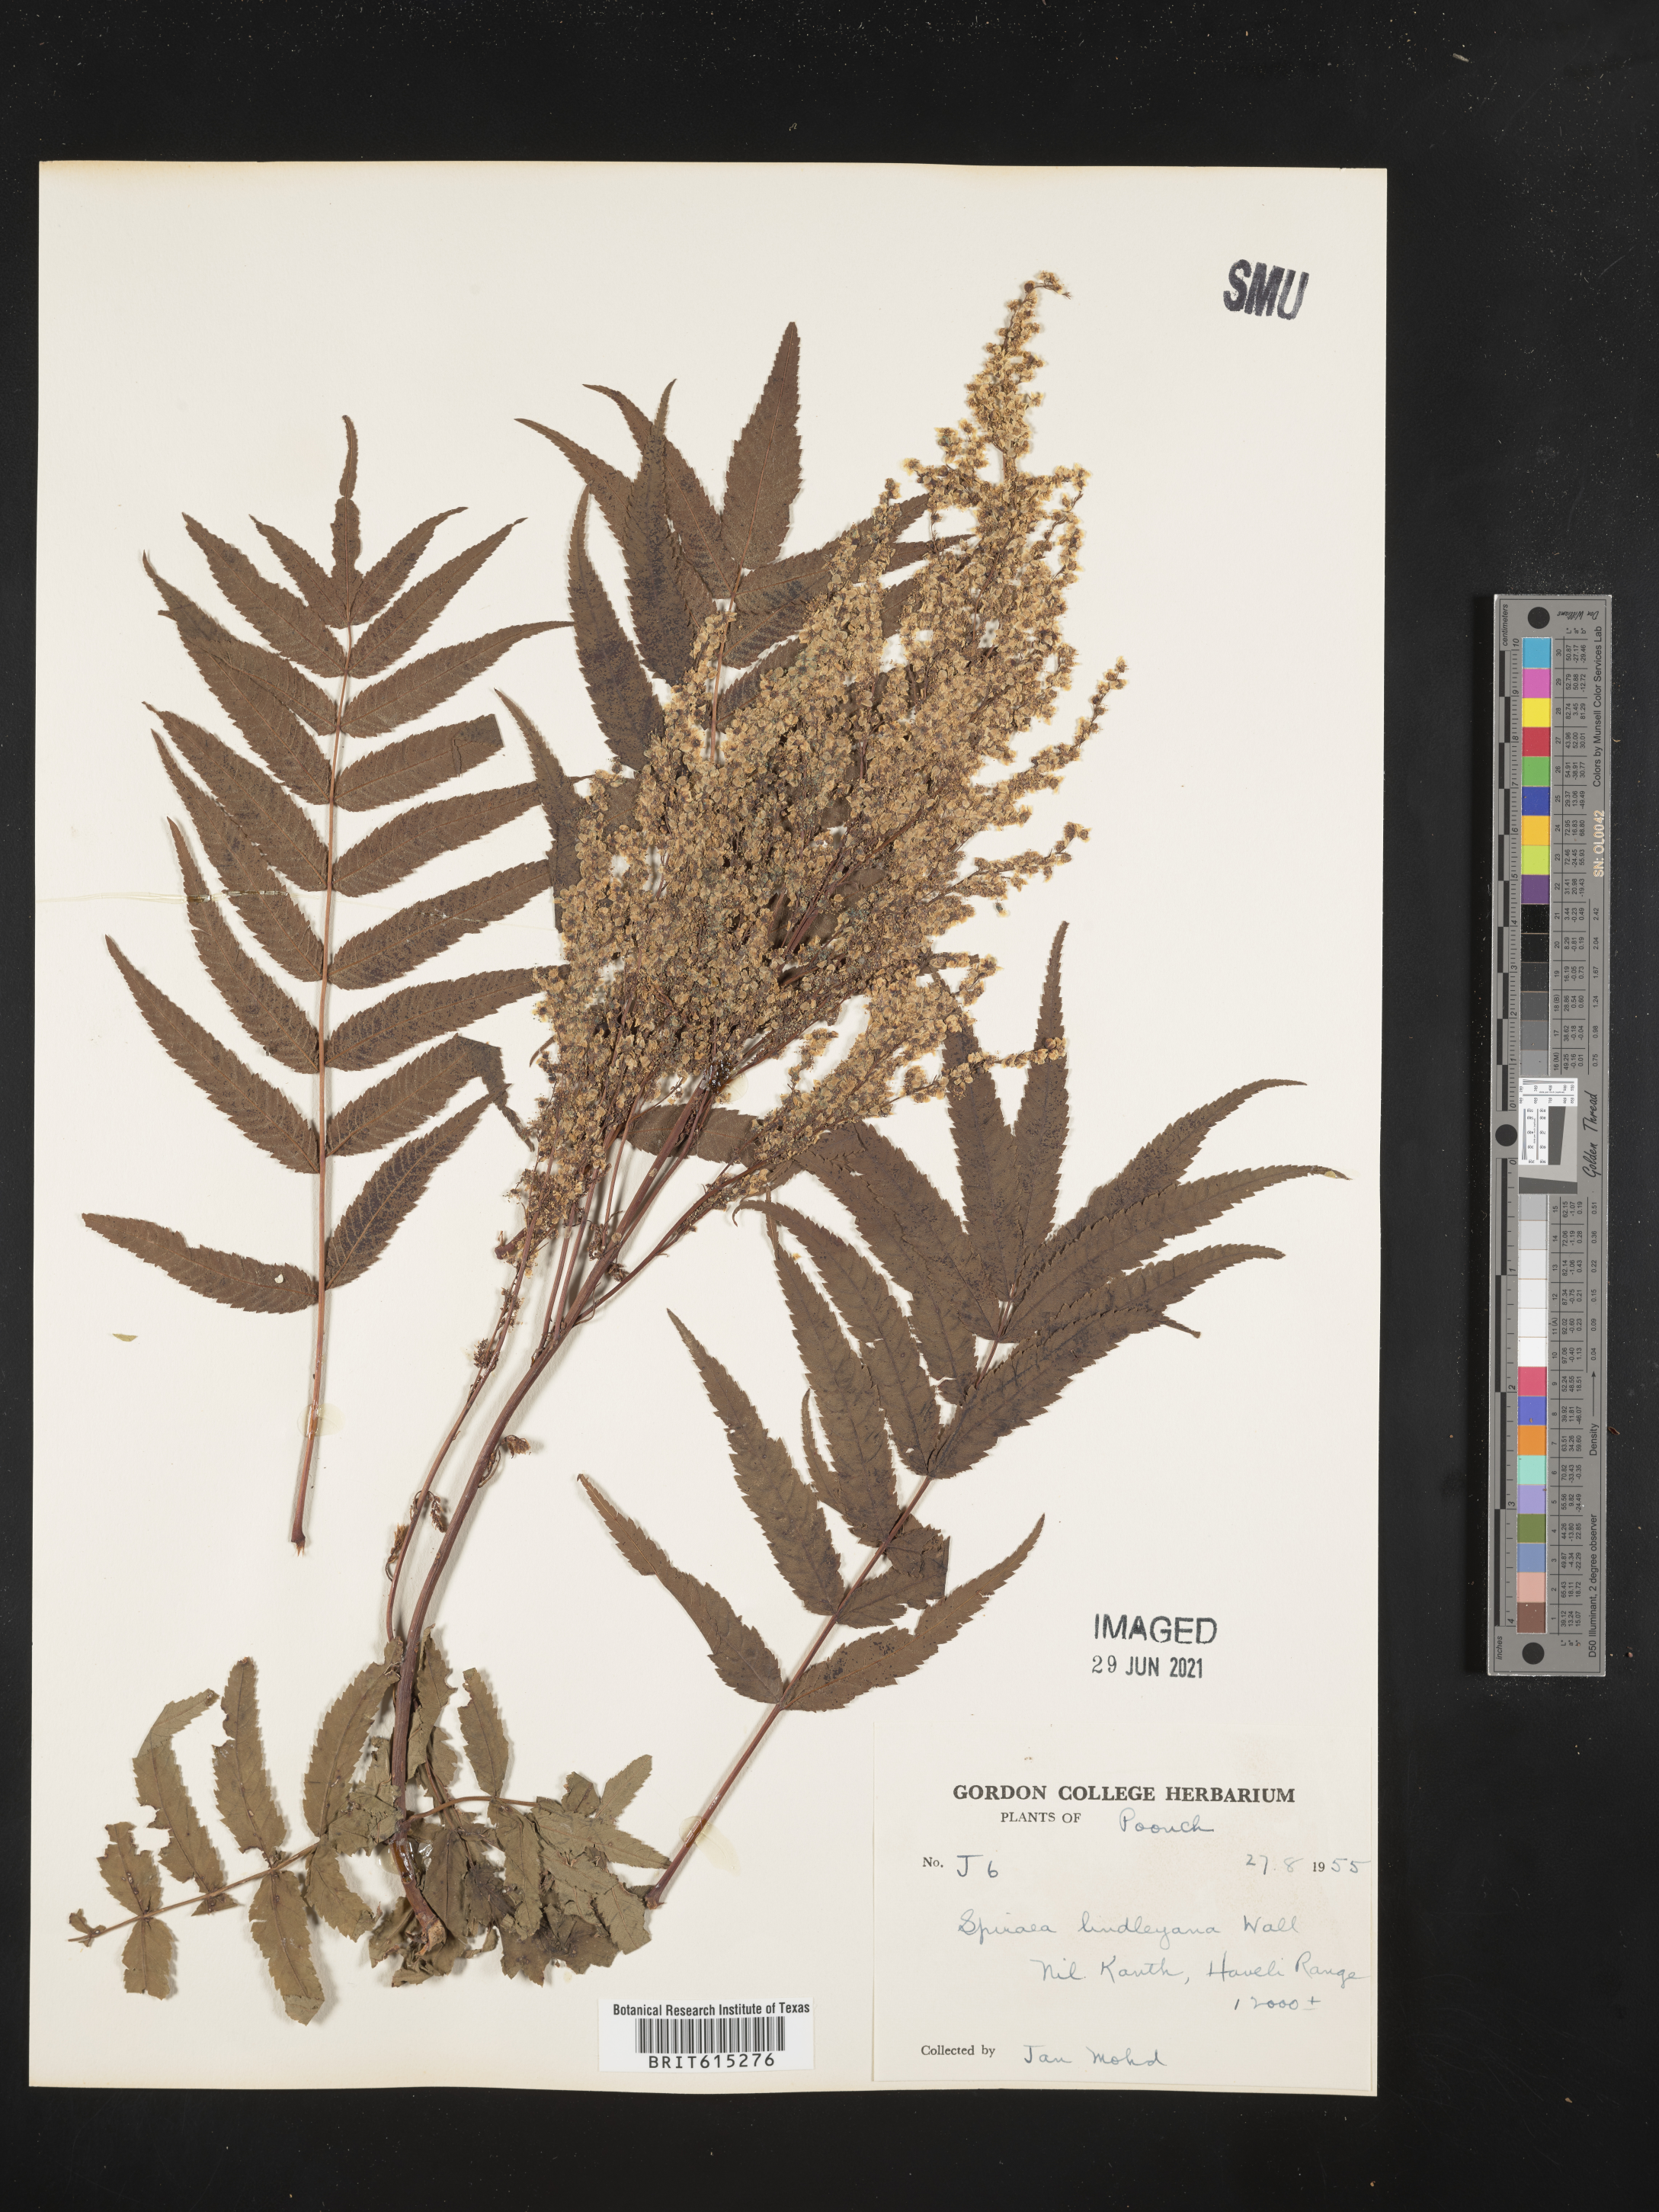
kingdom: Plantae
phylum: Tracheophyta
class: Magnoliopsida
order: Rosales
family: Rosaceae
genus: Sorbaria
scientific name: Sorbaria tomentosa
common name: Himalayan sorbaria
